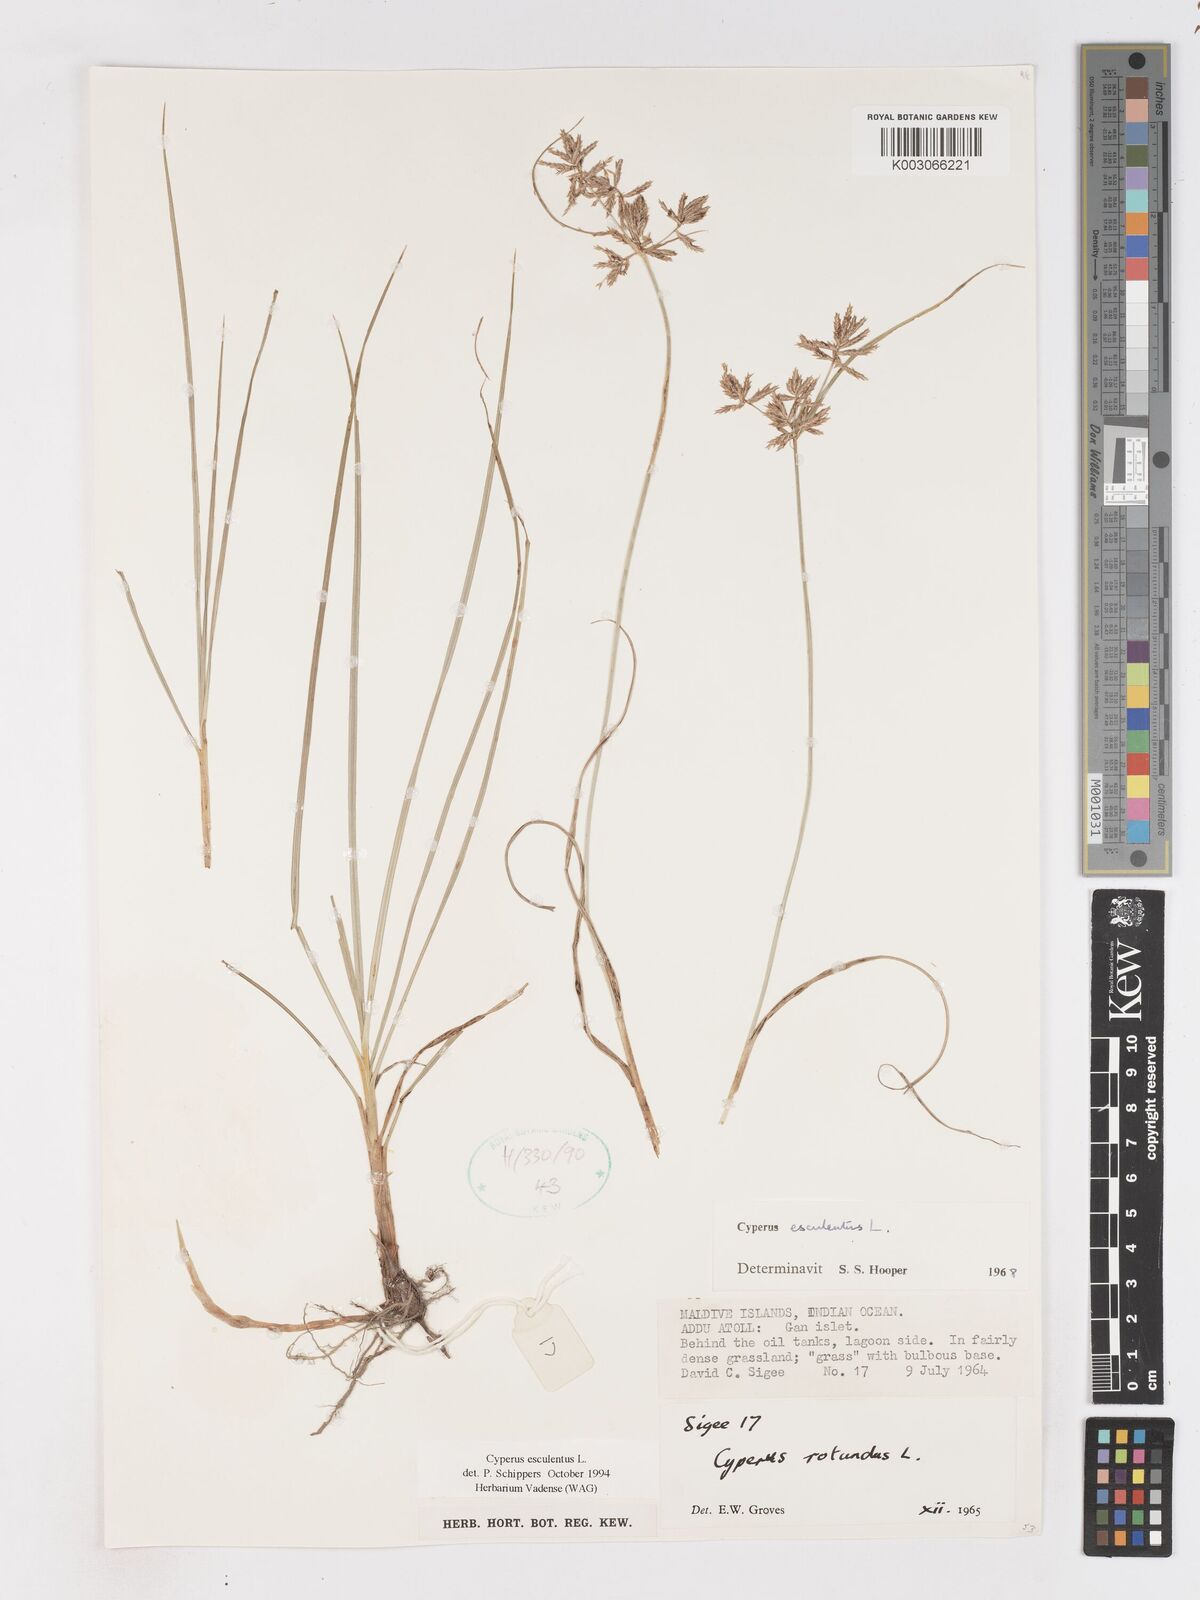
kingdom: Plantae
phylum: Tracheophyta
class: Liliopsida
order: Poales
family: Cyperaceae
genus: Cyperus
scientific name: Cyperus esculentus
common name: Yellow nutsedge
